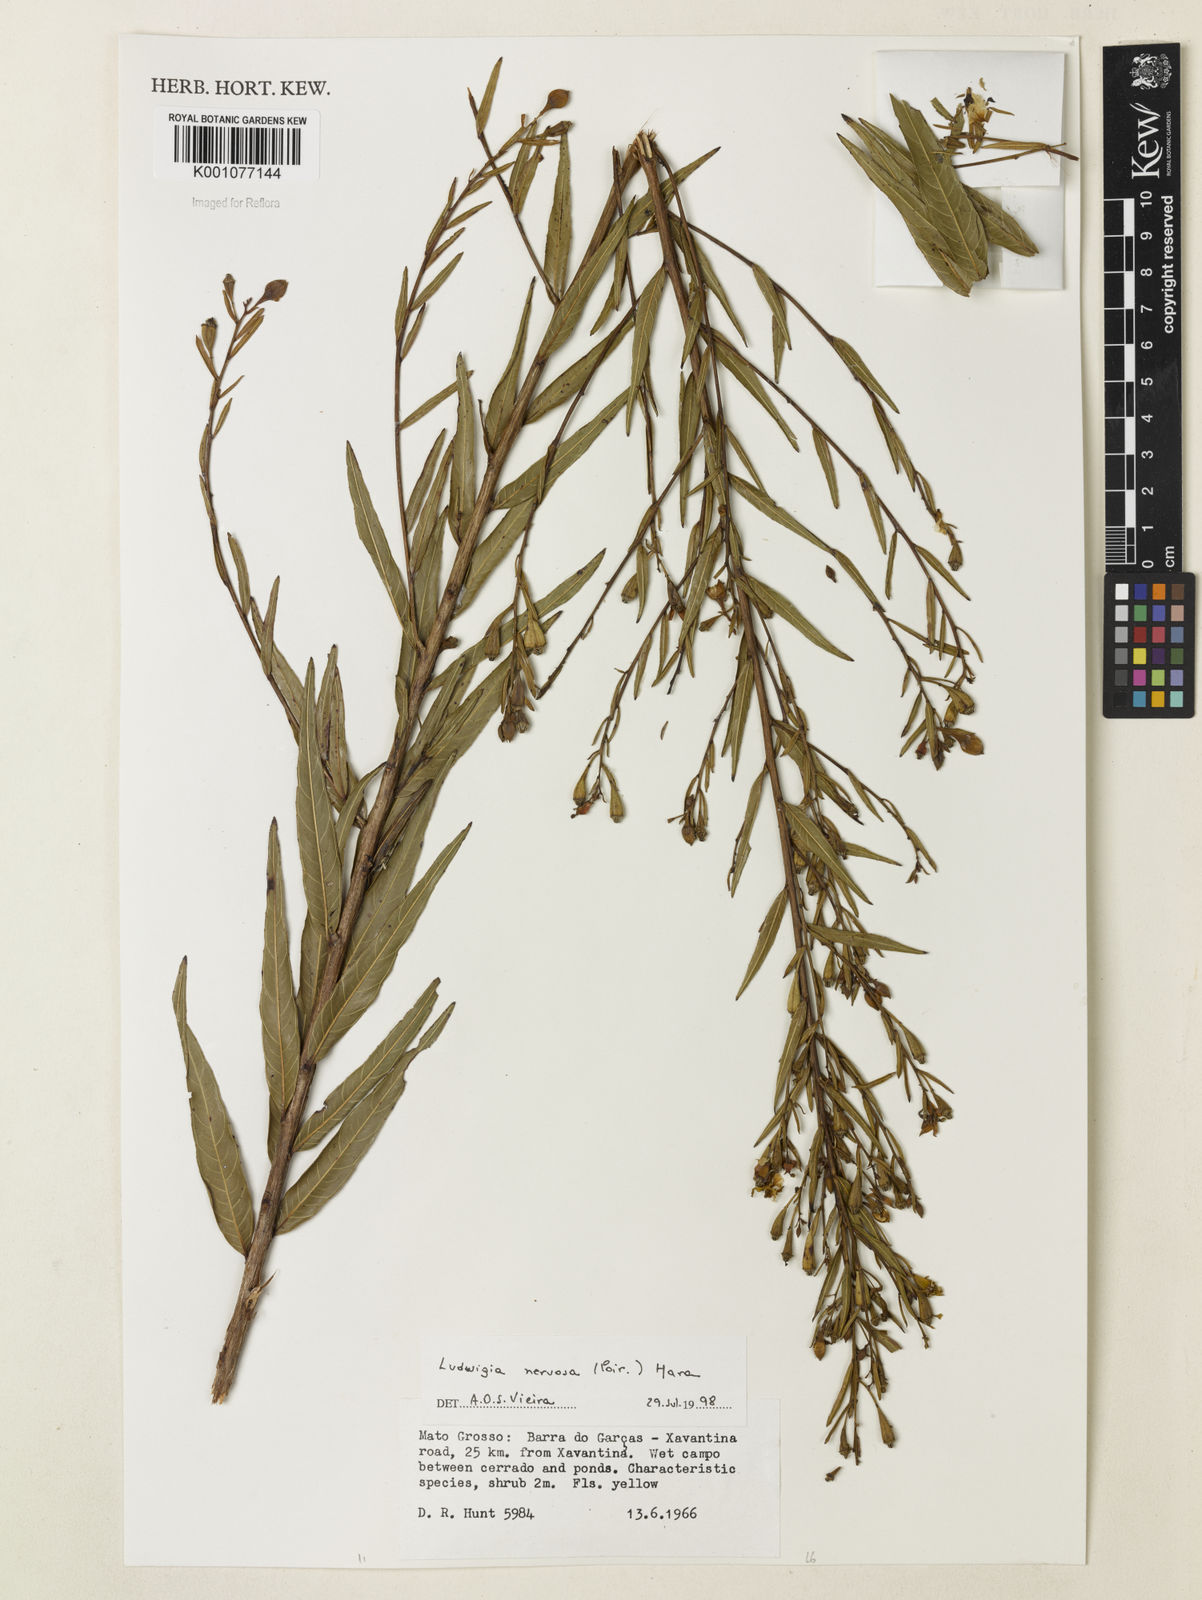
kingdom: Plantae
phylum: Tracheophyta
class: Magnoliopsida
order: Myrtales
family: Onagraceae
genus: Ludwigia
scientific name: Ludwigia nervosa
